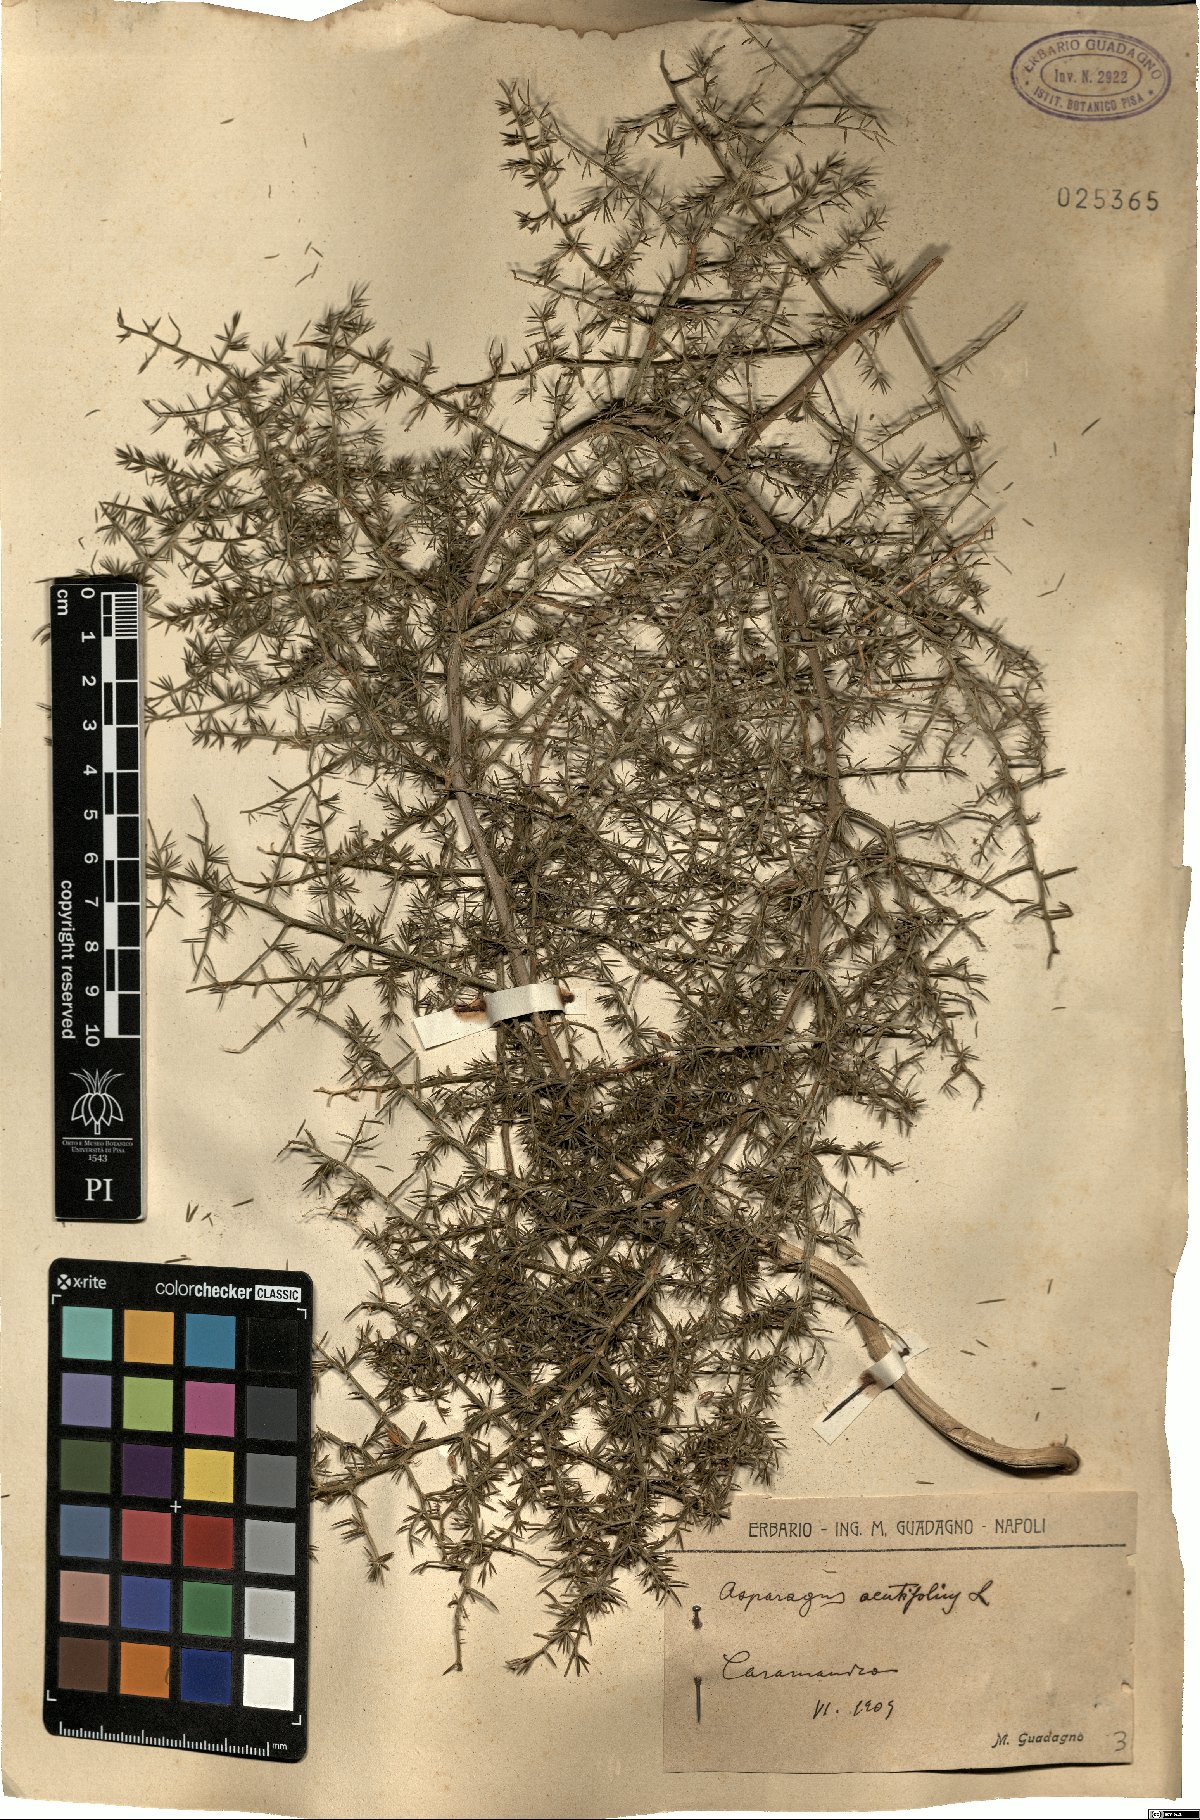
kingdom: Plantae
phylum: Tracheophyta
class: Liliopsida
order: Asparagales
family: Asparagaceae
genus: Asparagus
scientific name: Asparagus acutifolius
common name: Wild asparagus
